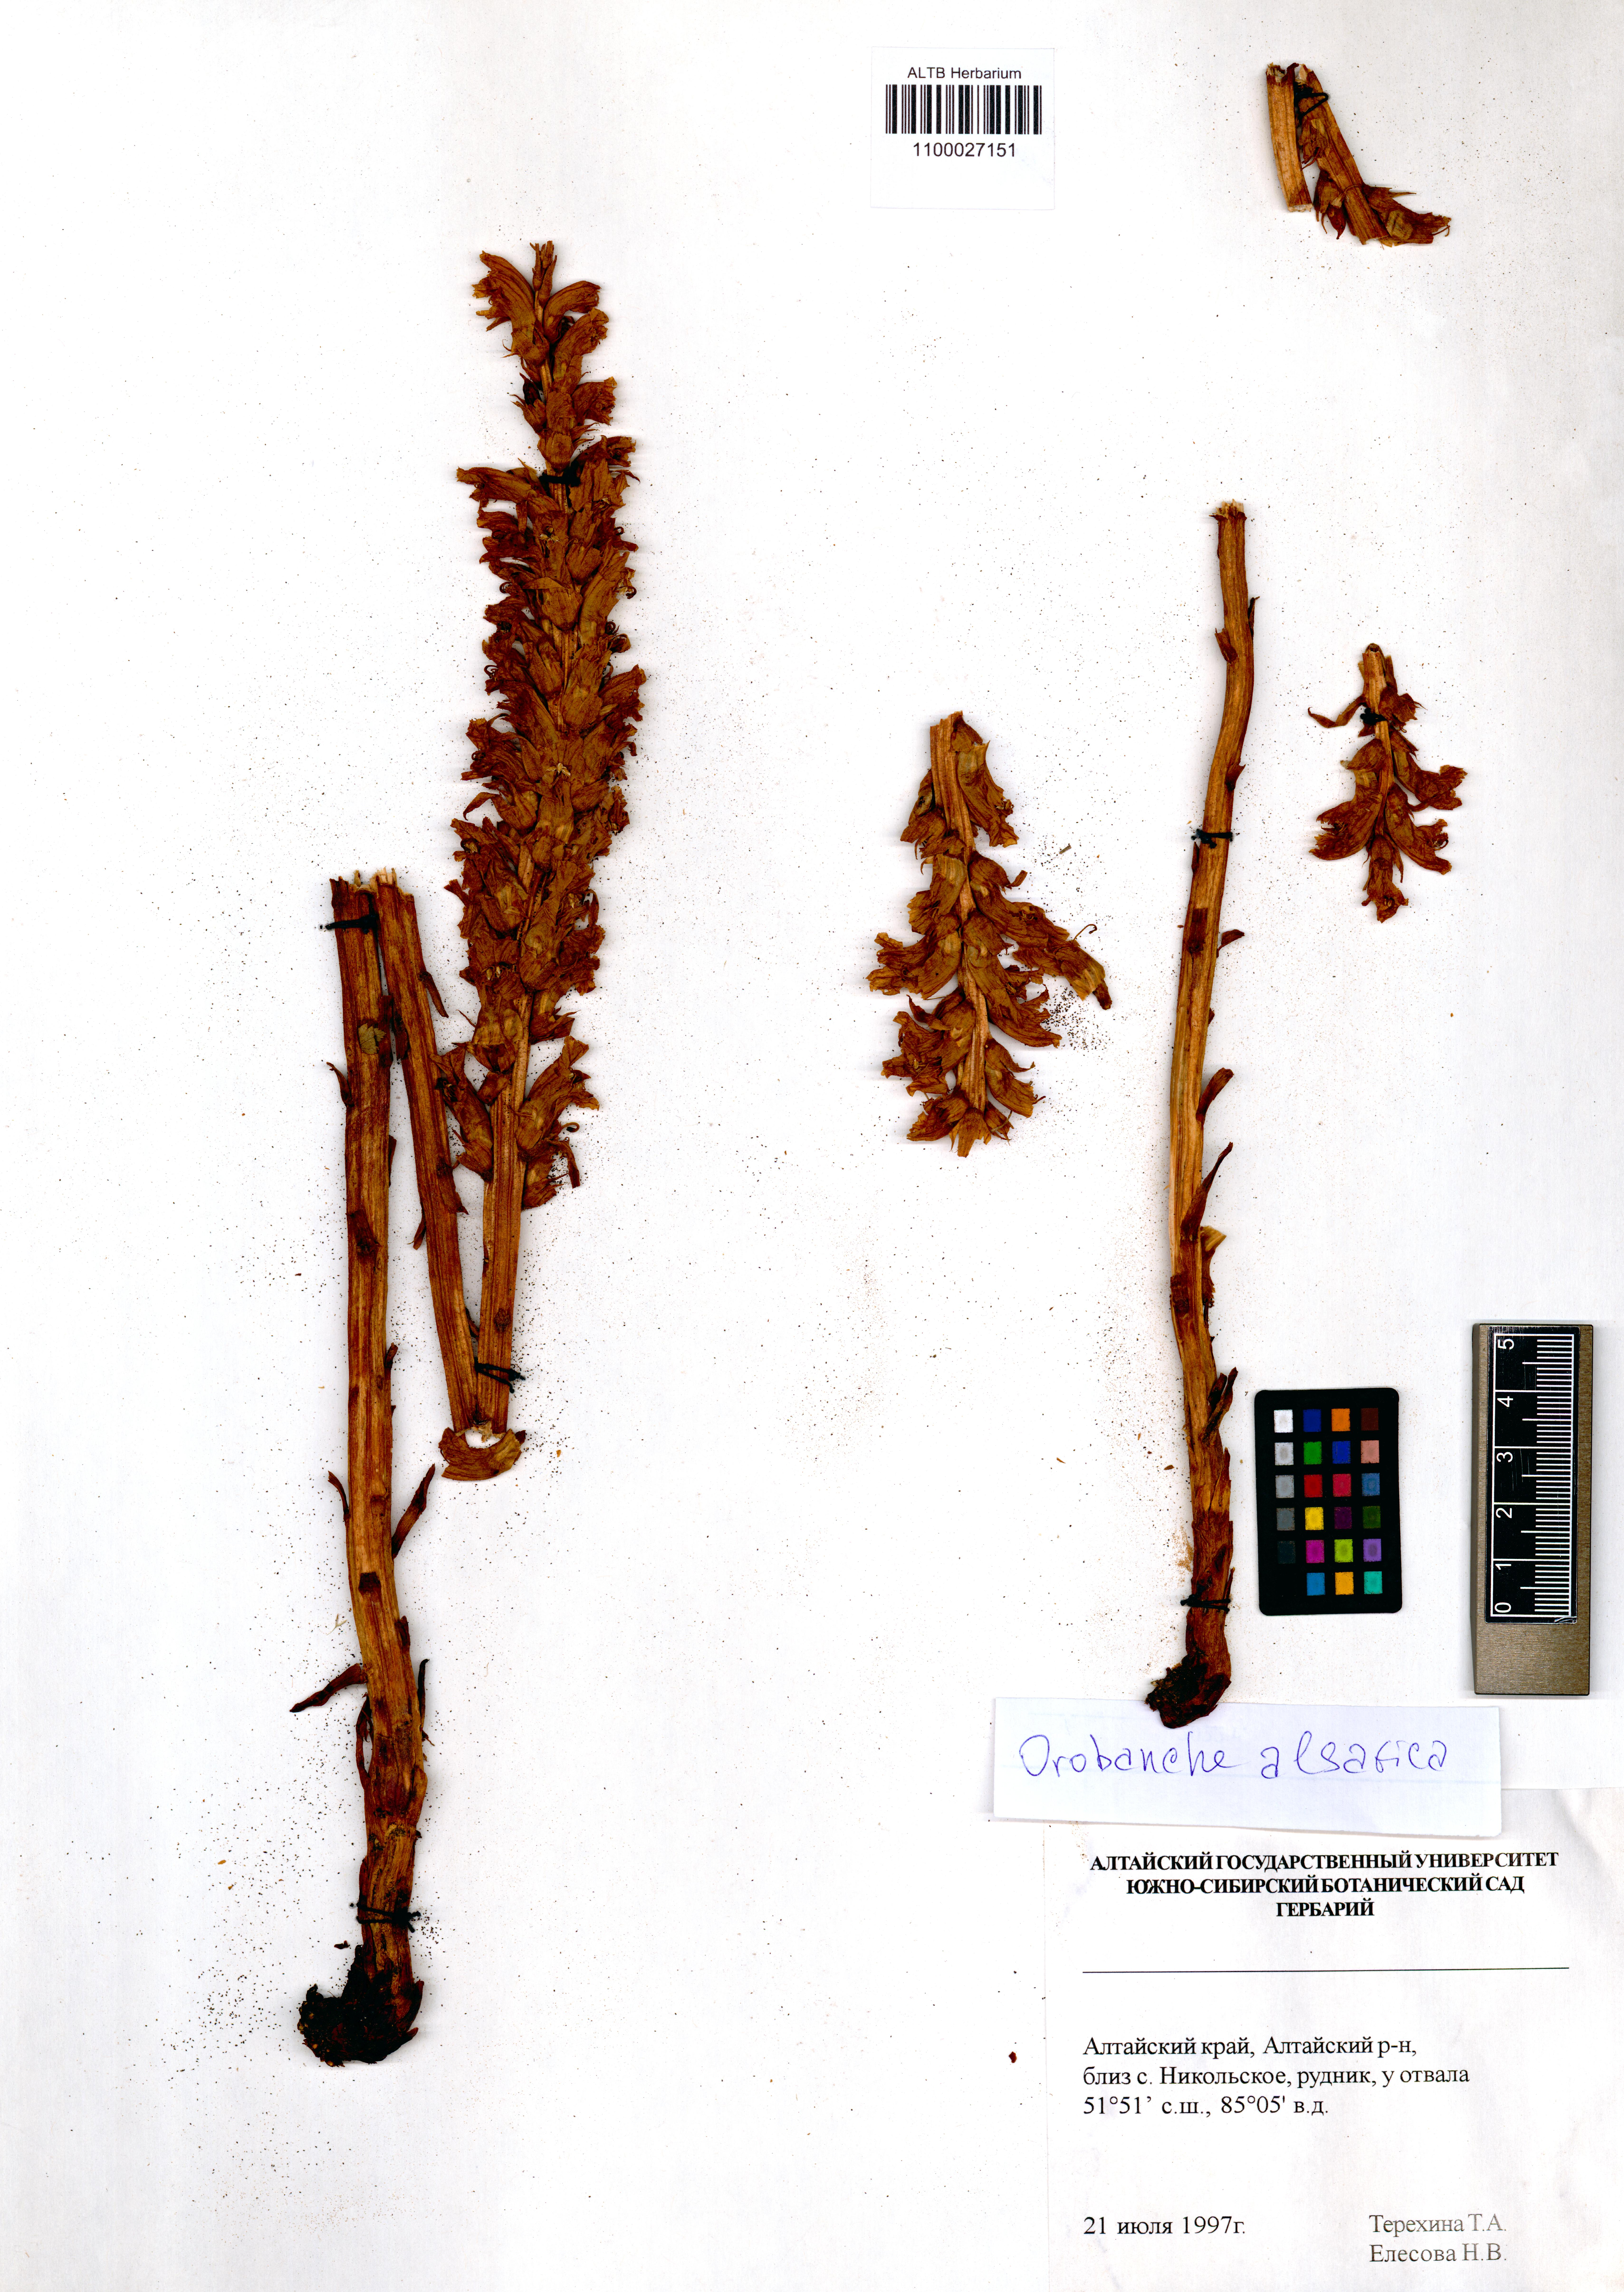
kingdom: Plantae
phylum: Tracheophyta
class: Magnoliopsida
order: Lamiales
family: Orobanchaceae
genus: Orobanche
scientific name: Orobanche alsatica
